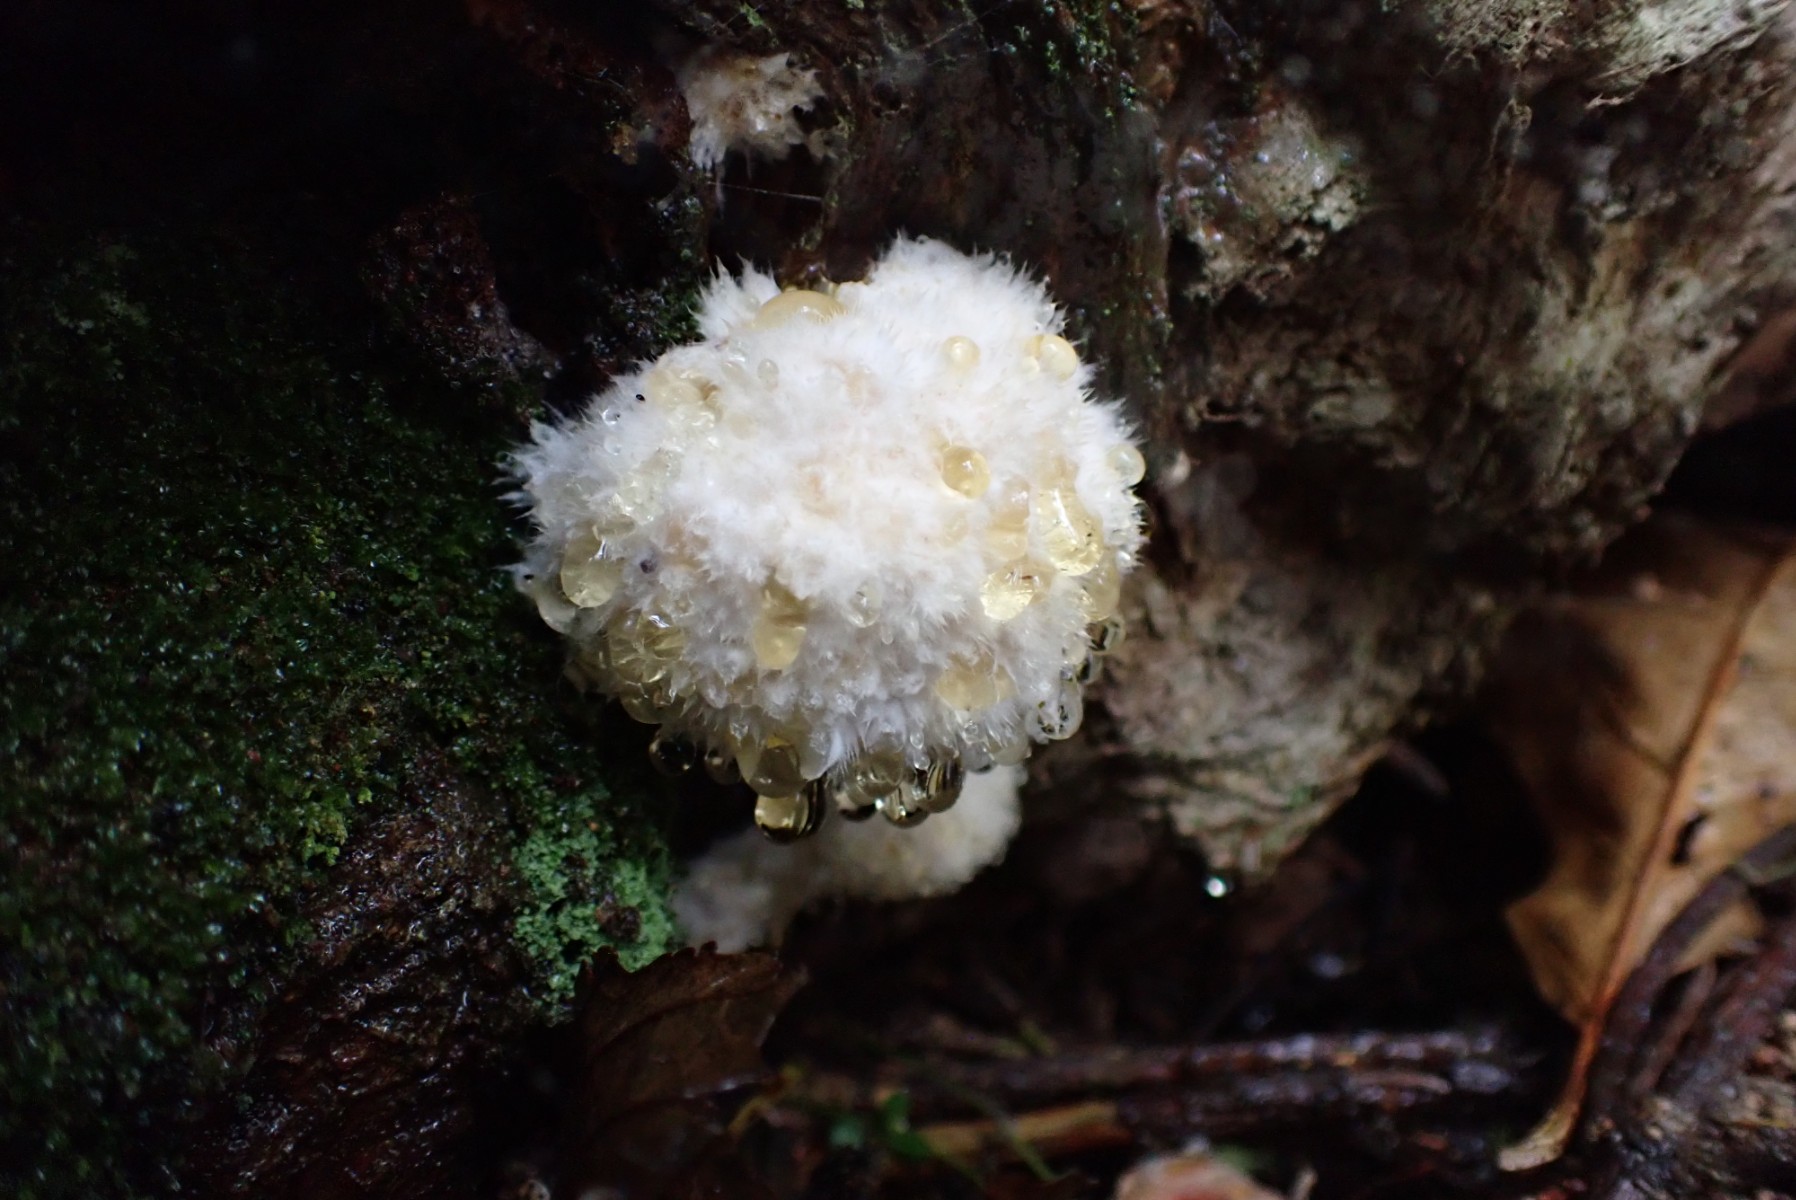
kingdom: Fungi
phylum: Basidiomycota
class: Agaricomycetes
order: Polyporales
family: Dacryobolaceae
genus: Postia
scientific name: Postia ptychogaster
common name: støvende kødporesvamp
